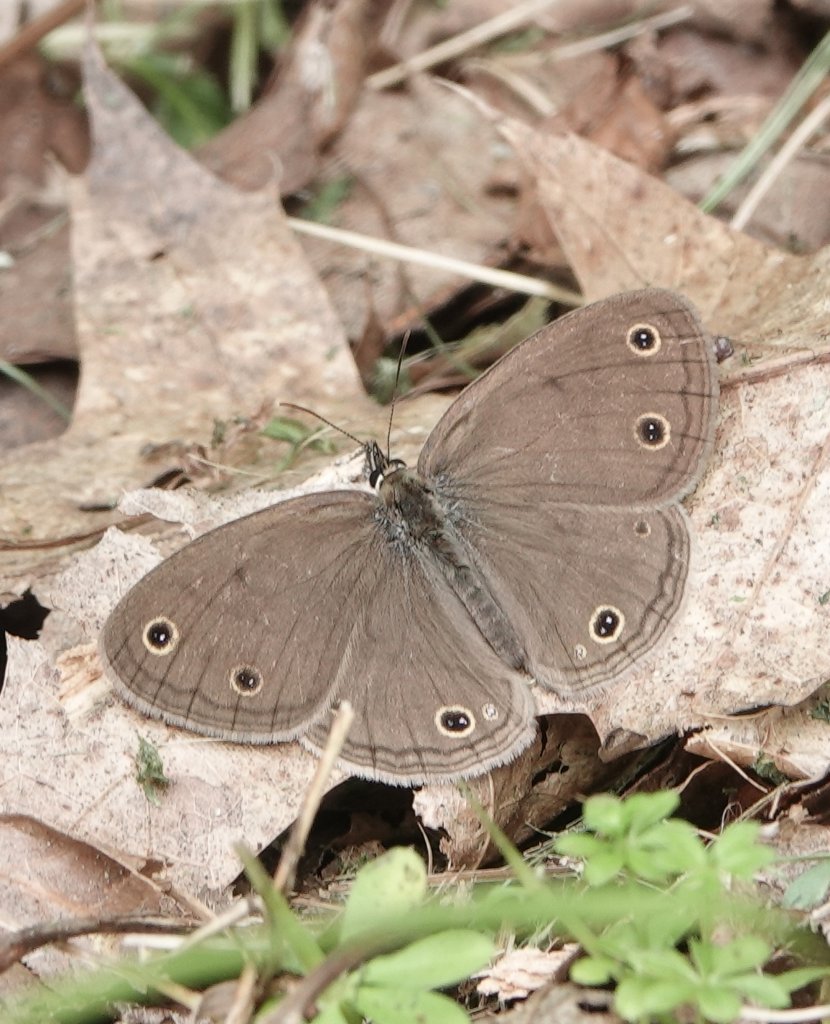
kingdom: Animalia
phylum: Arthropoda
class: Insecta
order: Lepidoptera
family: Nymphalidae
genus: Euptychia
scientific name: Euptychia cymela
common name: Little Wood Satyr
